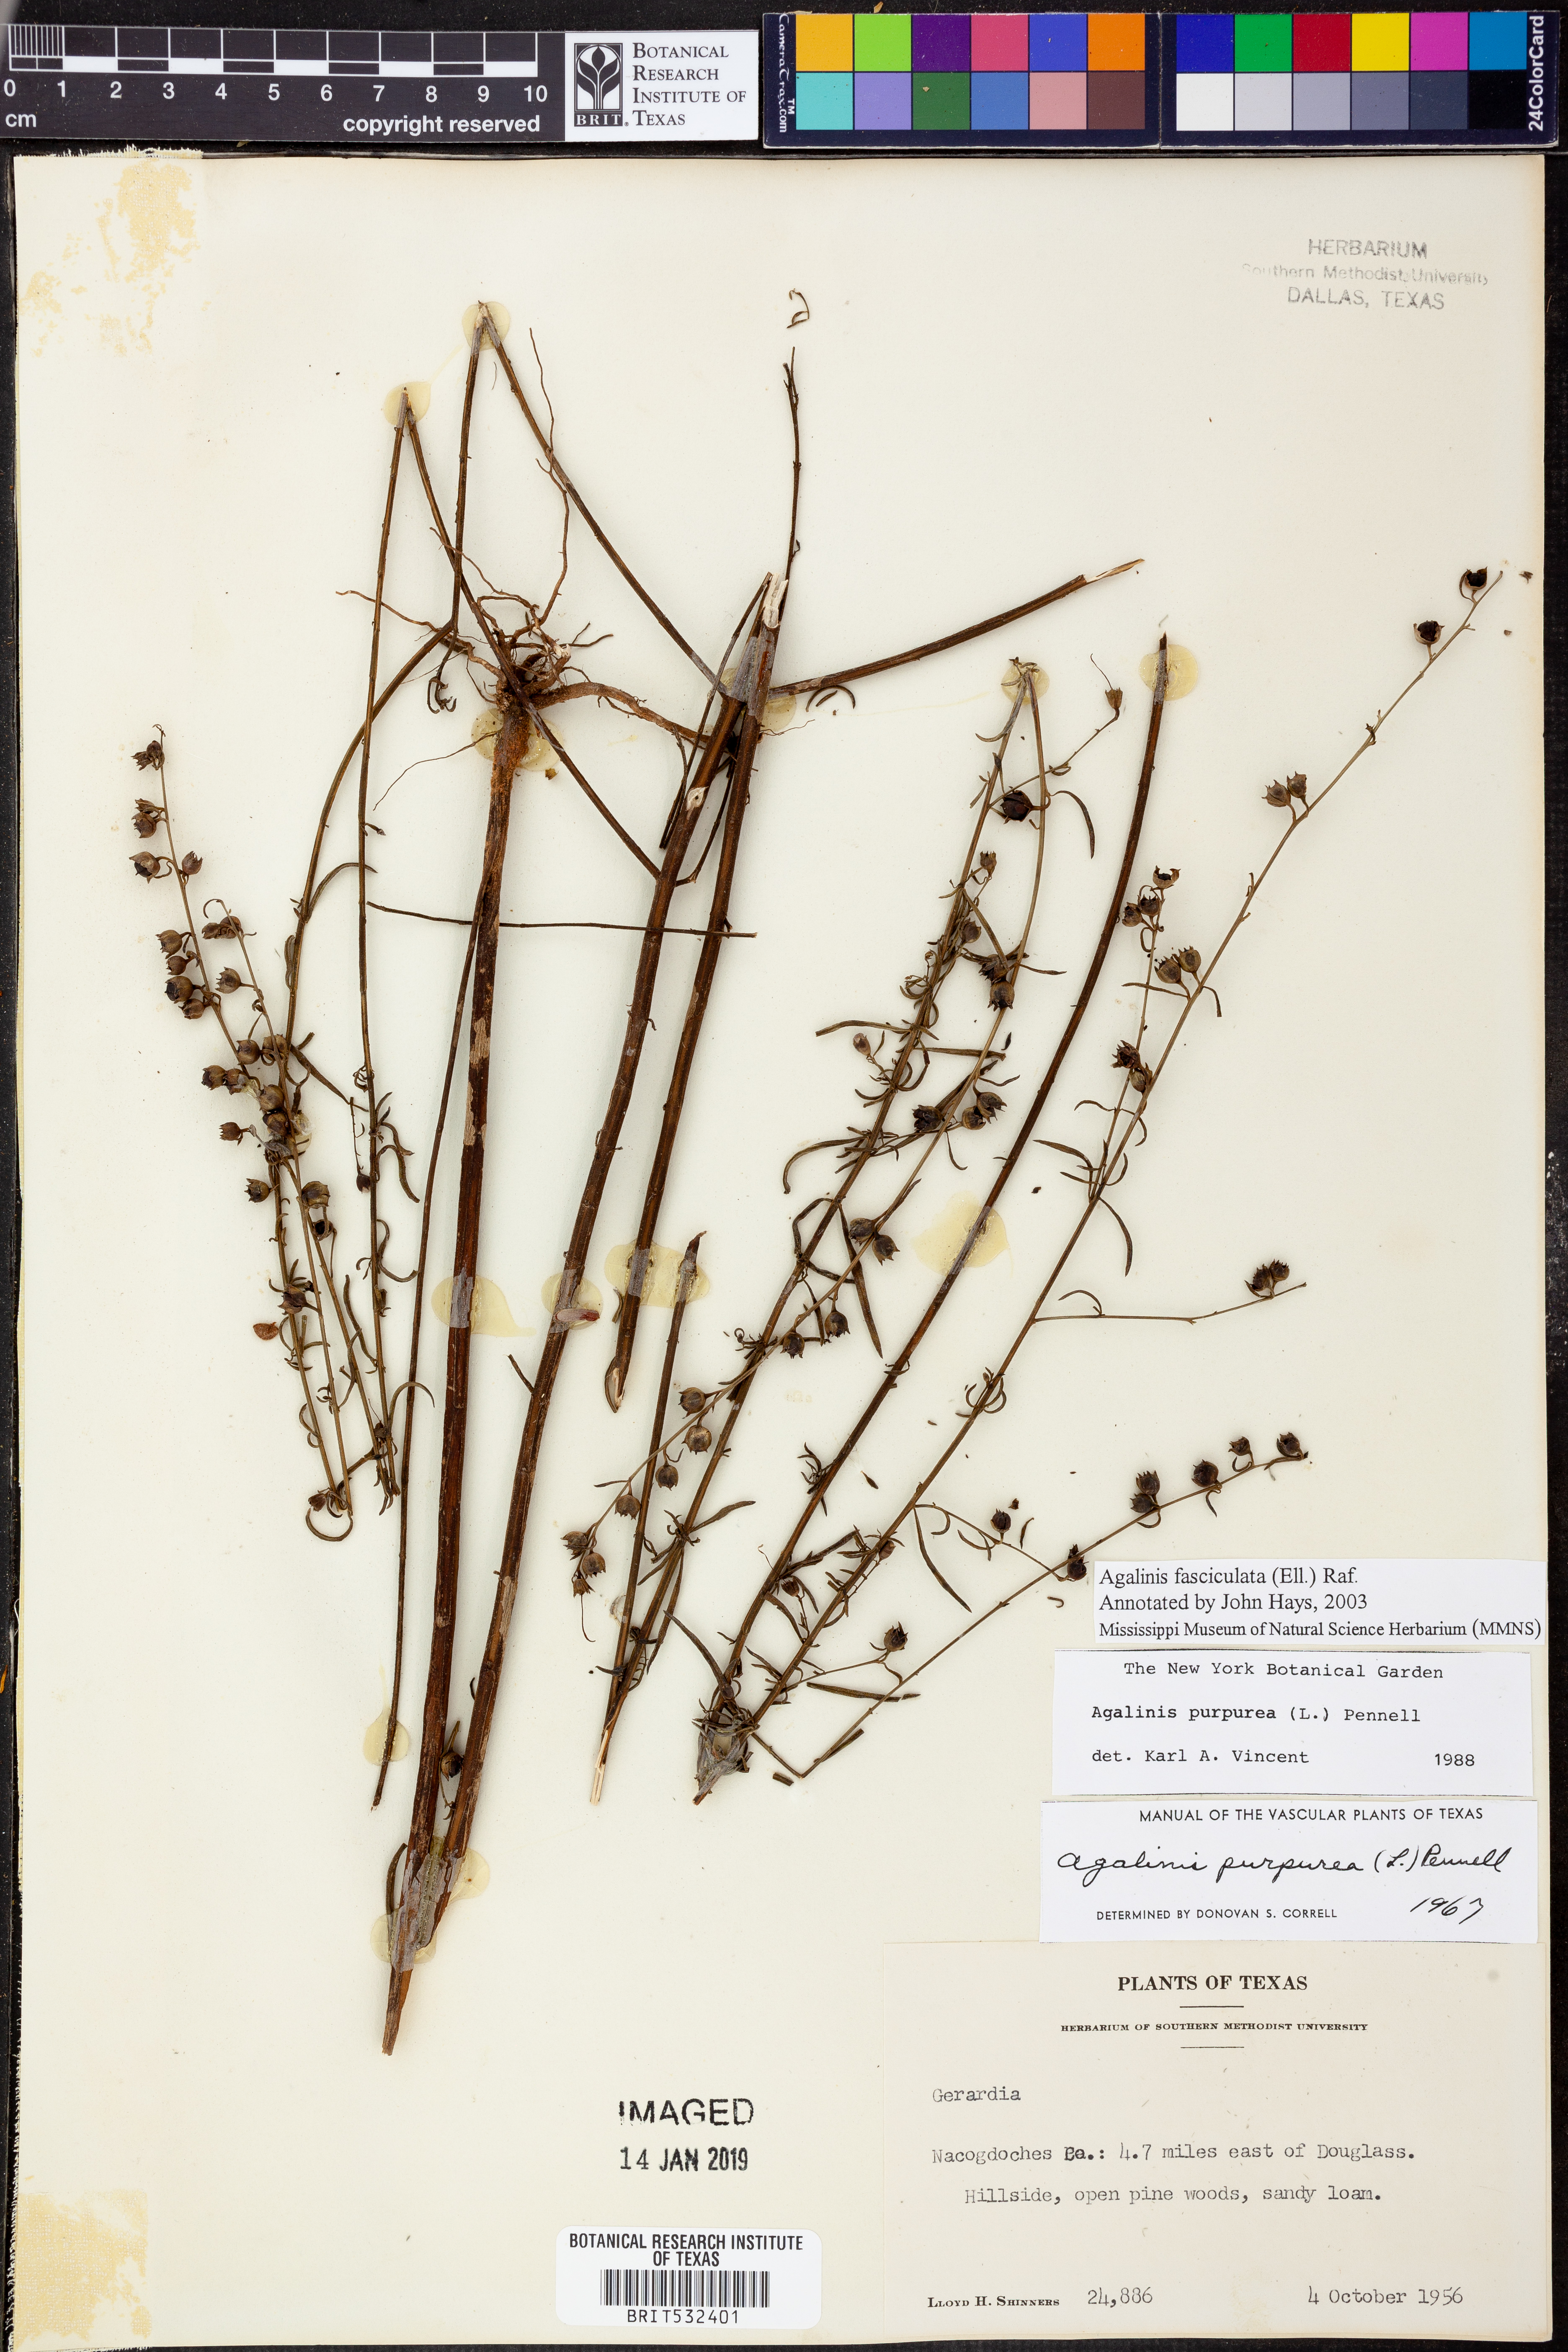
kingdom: Plantae
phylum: Tracheophyta
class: Magnoliopsida
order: Lamiales
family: Orobanchaceae
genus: Agalinis
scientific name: Agalinis fasciculata
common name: Beach false foxglove
